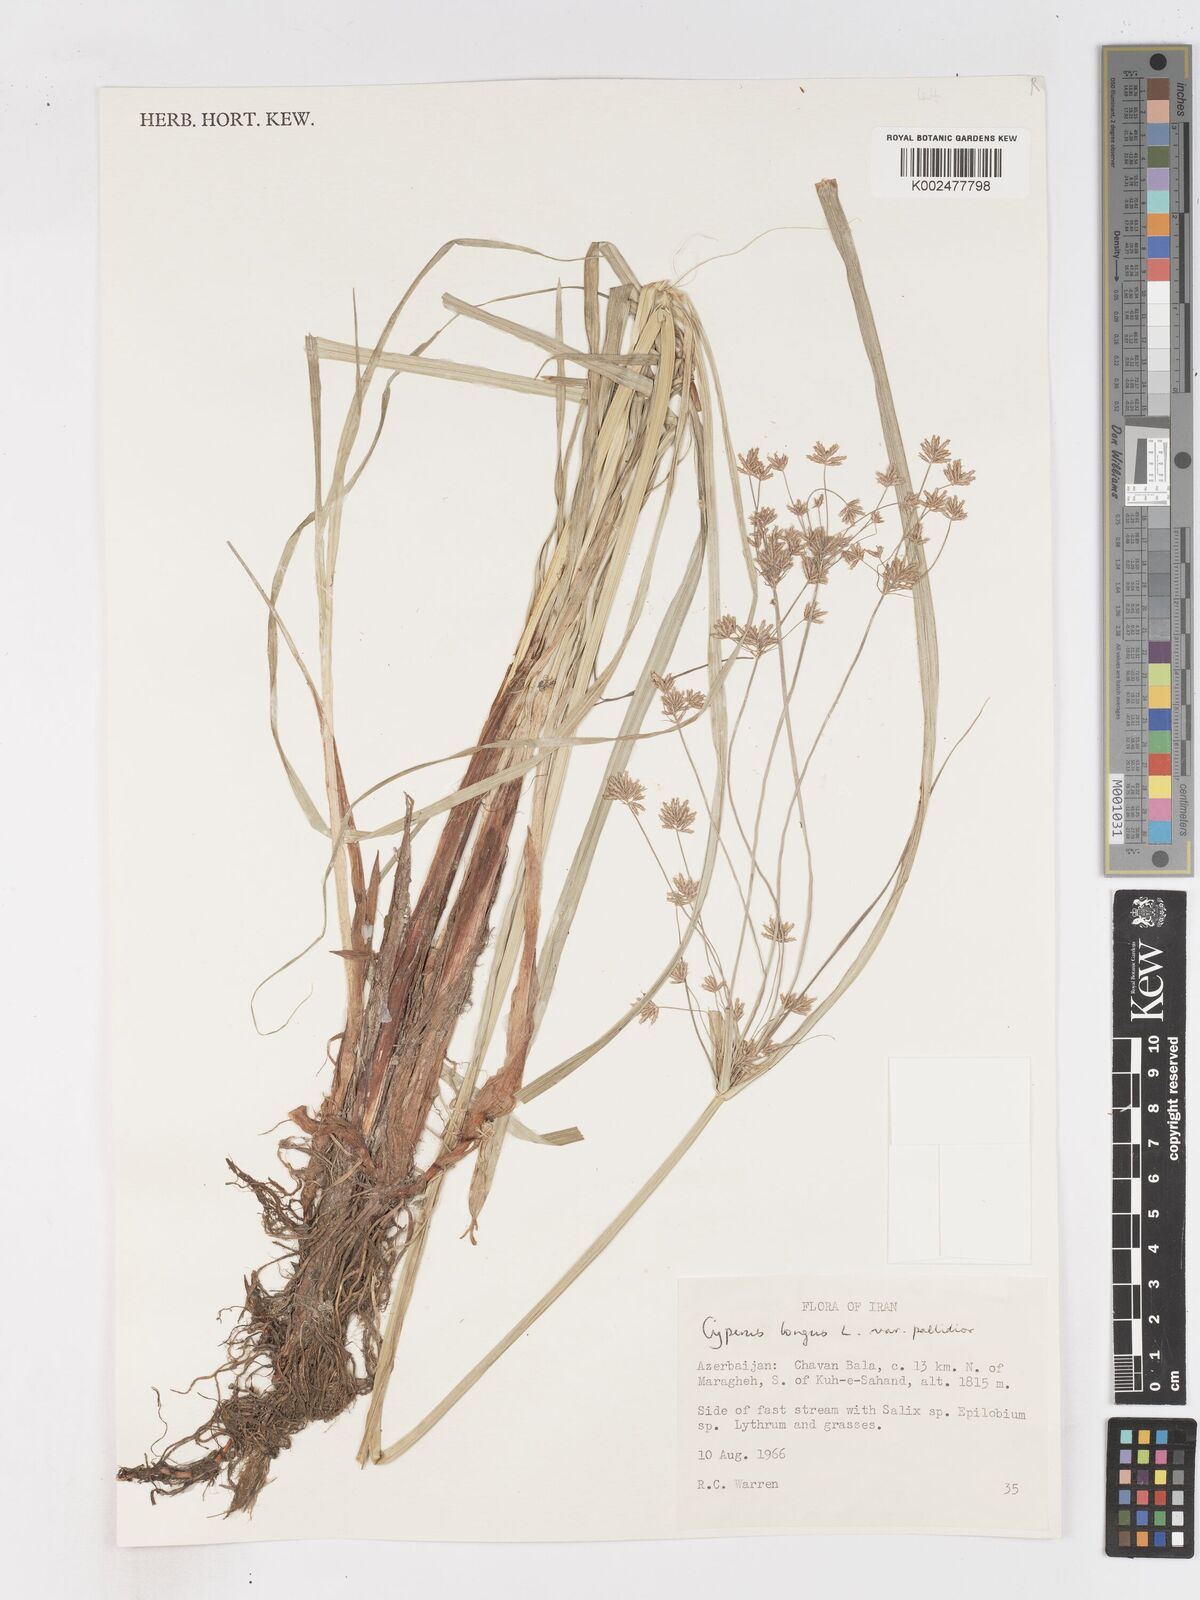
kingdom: Plantae
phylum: Tracheophyta
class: Liliopsida
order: Poales
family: Cyperaceae
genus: Cyperus
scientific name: Cyperus longus
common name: Galingale
